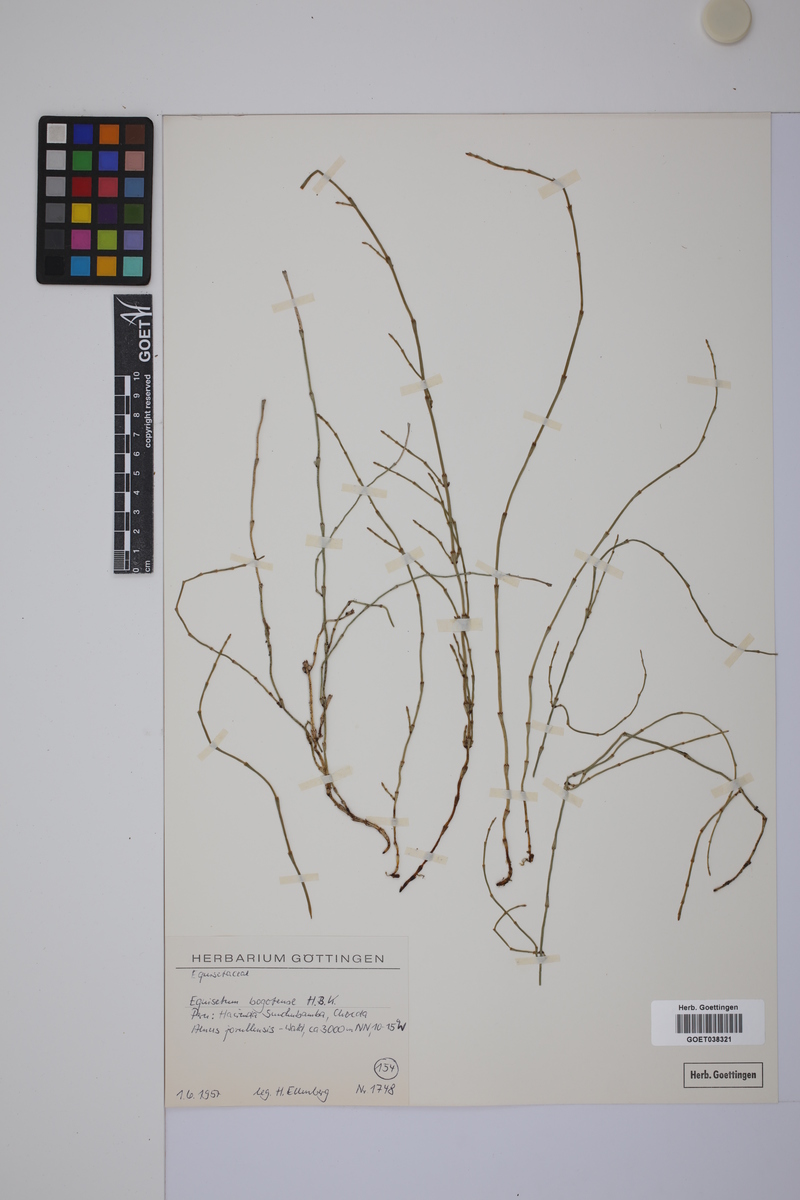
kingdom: Plantae
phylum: Tracheophyta
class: Polypodiopsida
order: Equisetales
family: Equisetaceae
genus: Equisetum
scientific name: Equisetum bogotense
